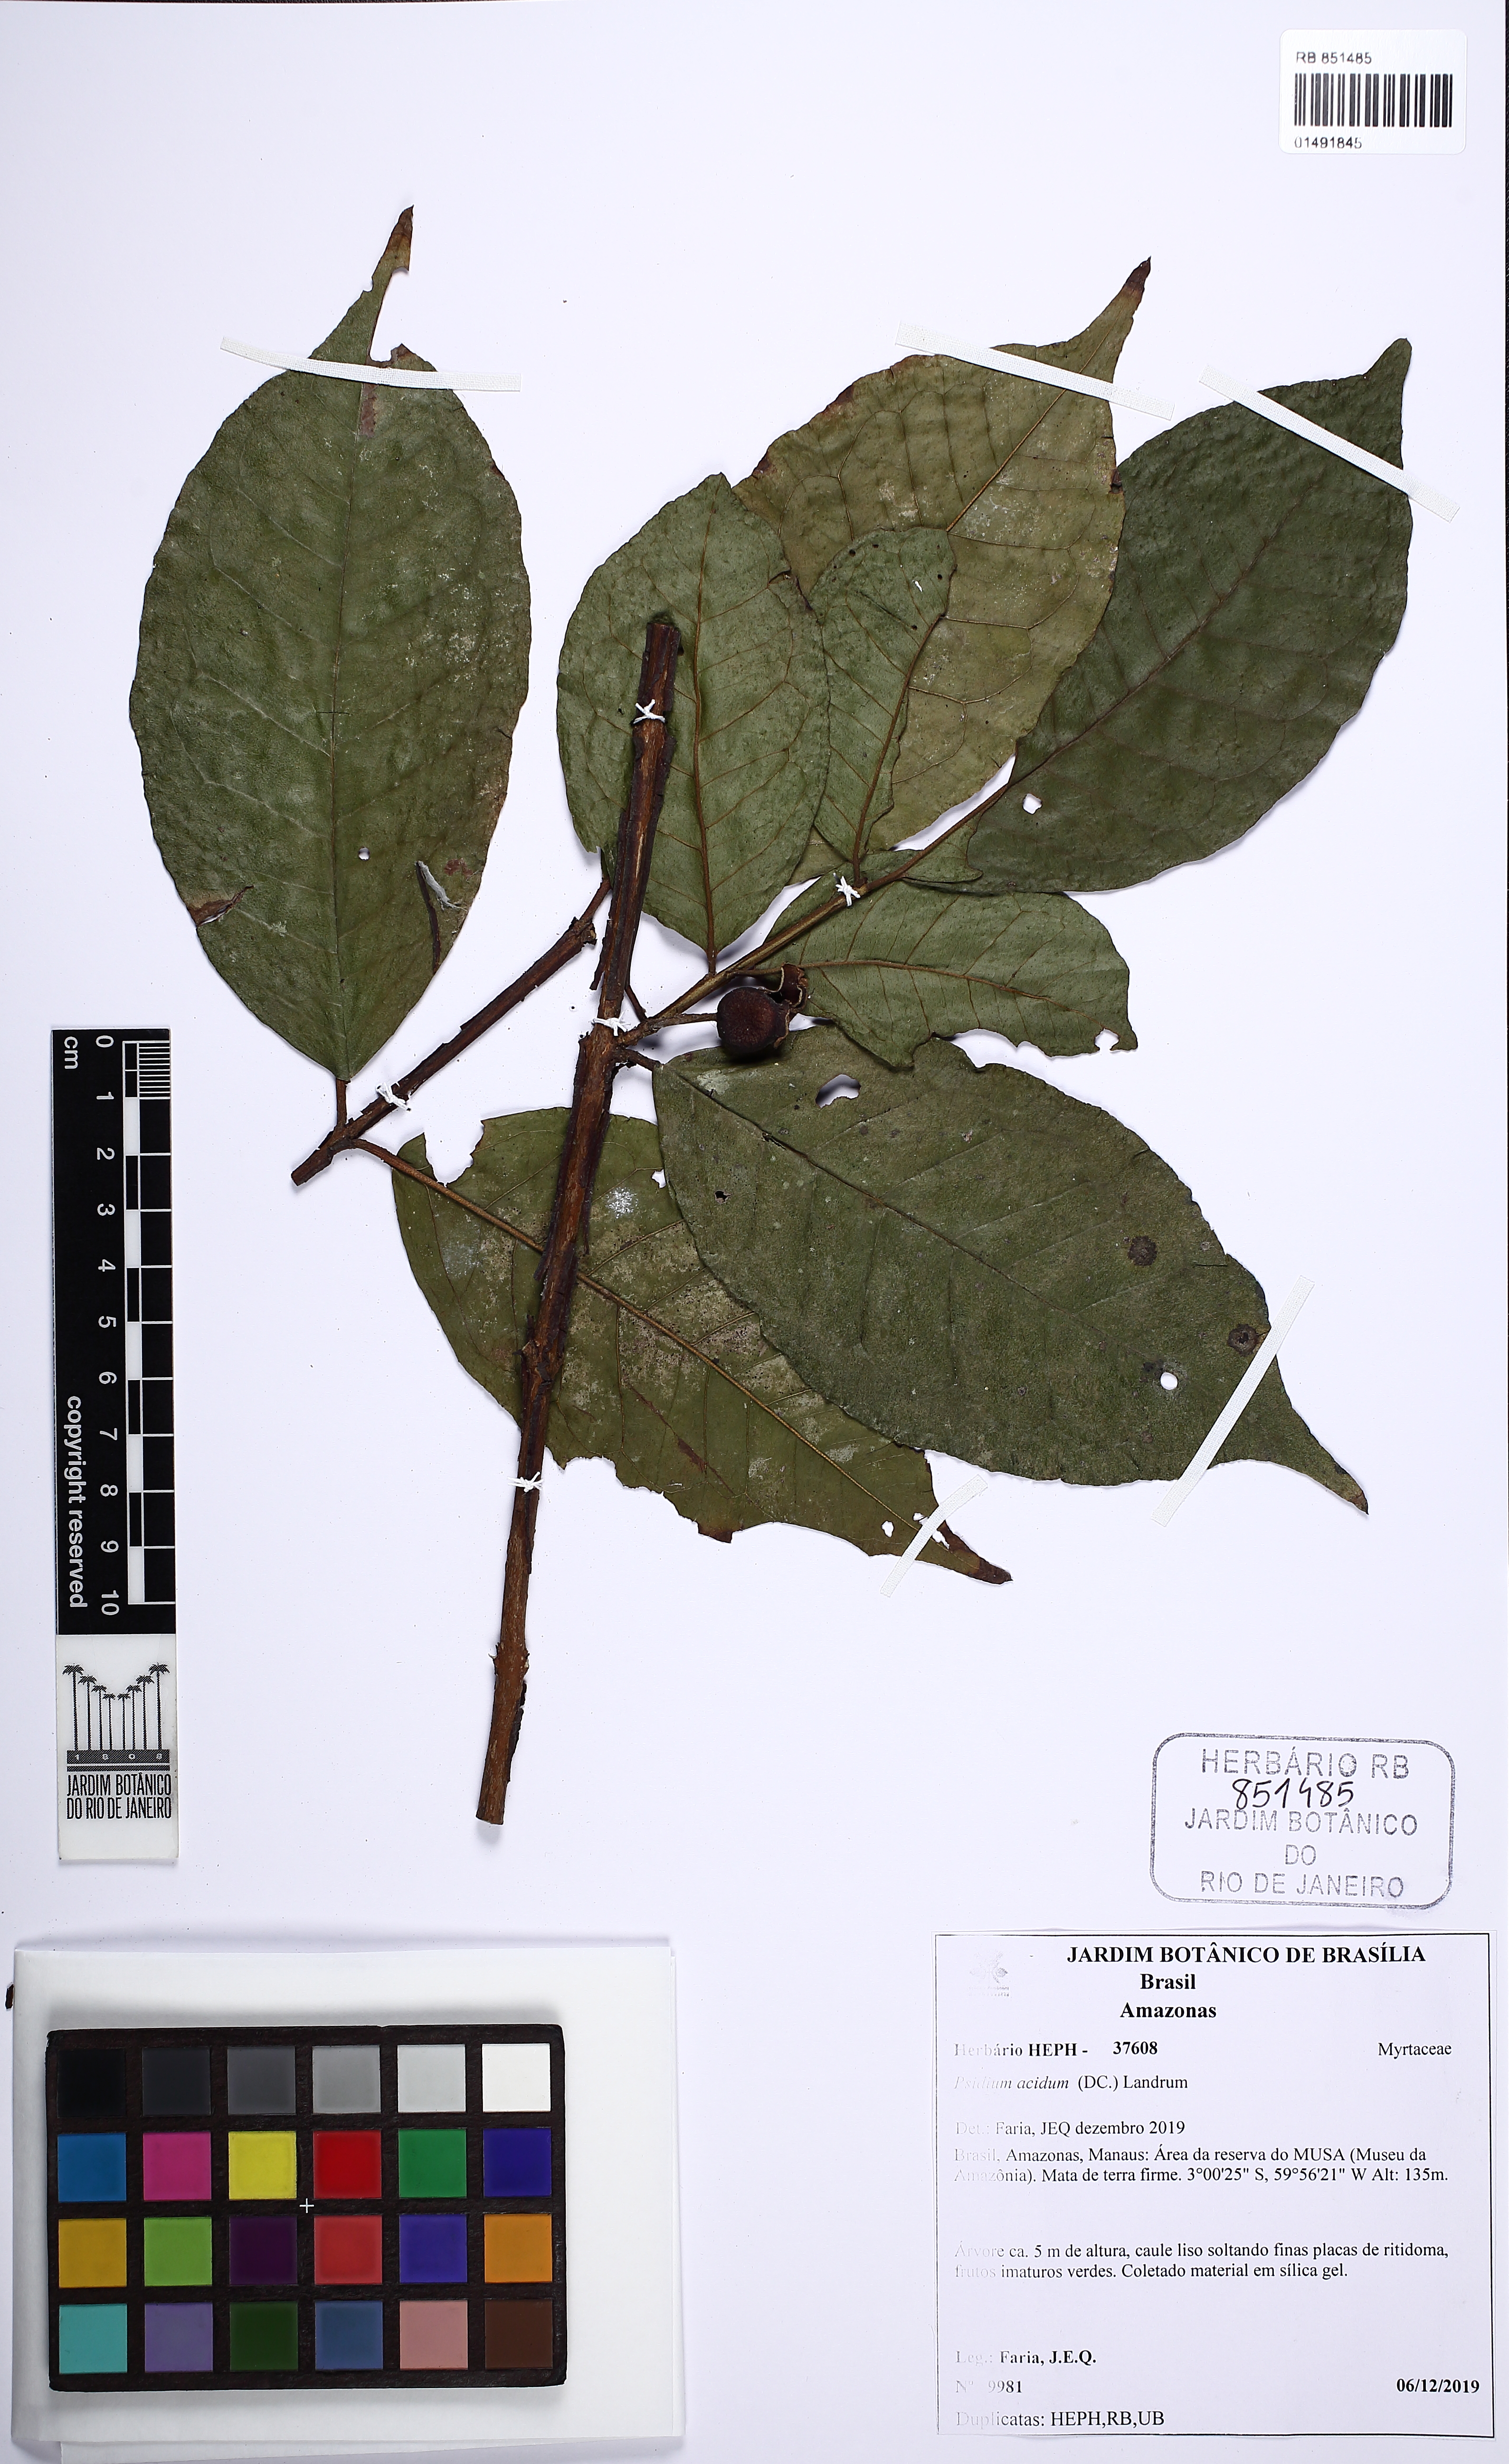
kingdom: Plantae
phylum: Tracheophyta
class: Magnoliopsida
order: Myrtales
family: Myrtaceae
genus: Psidium
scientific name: Psidium acidum
